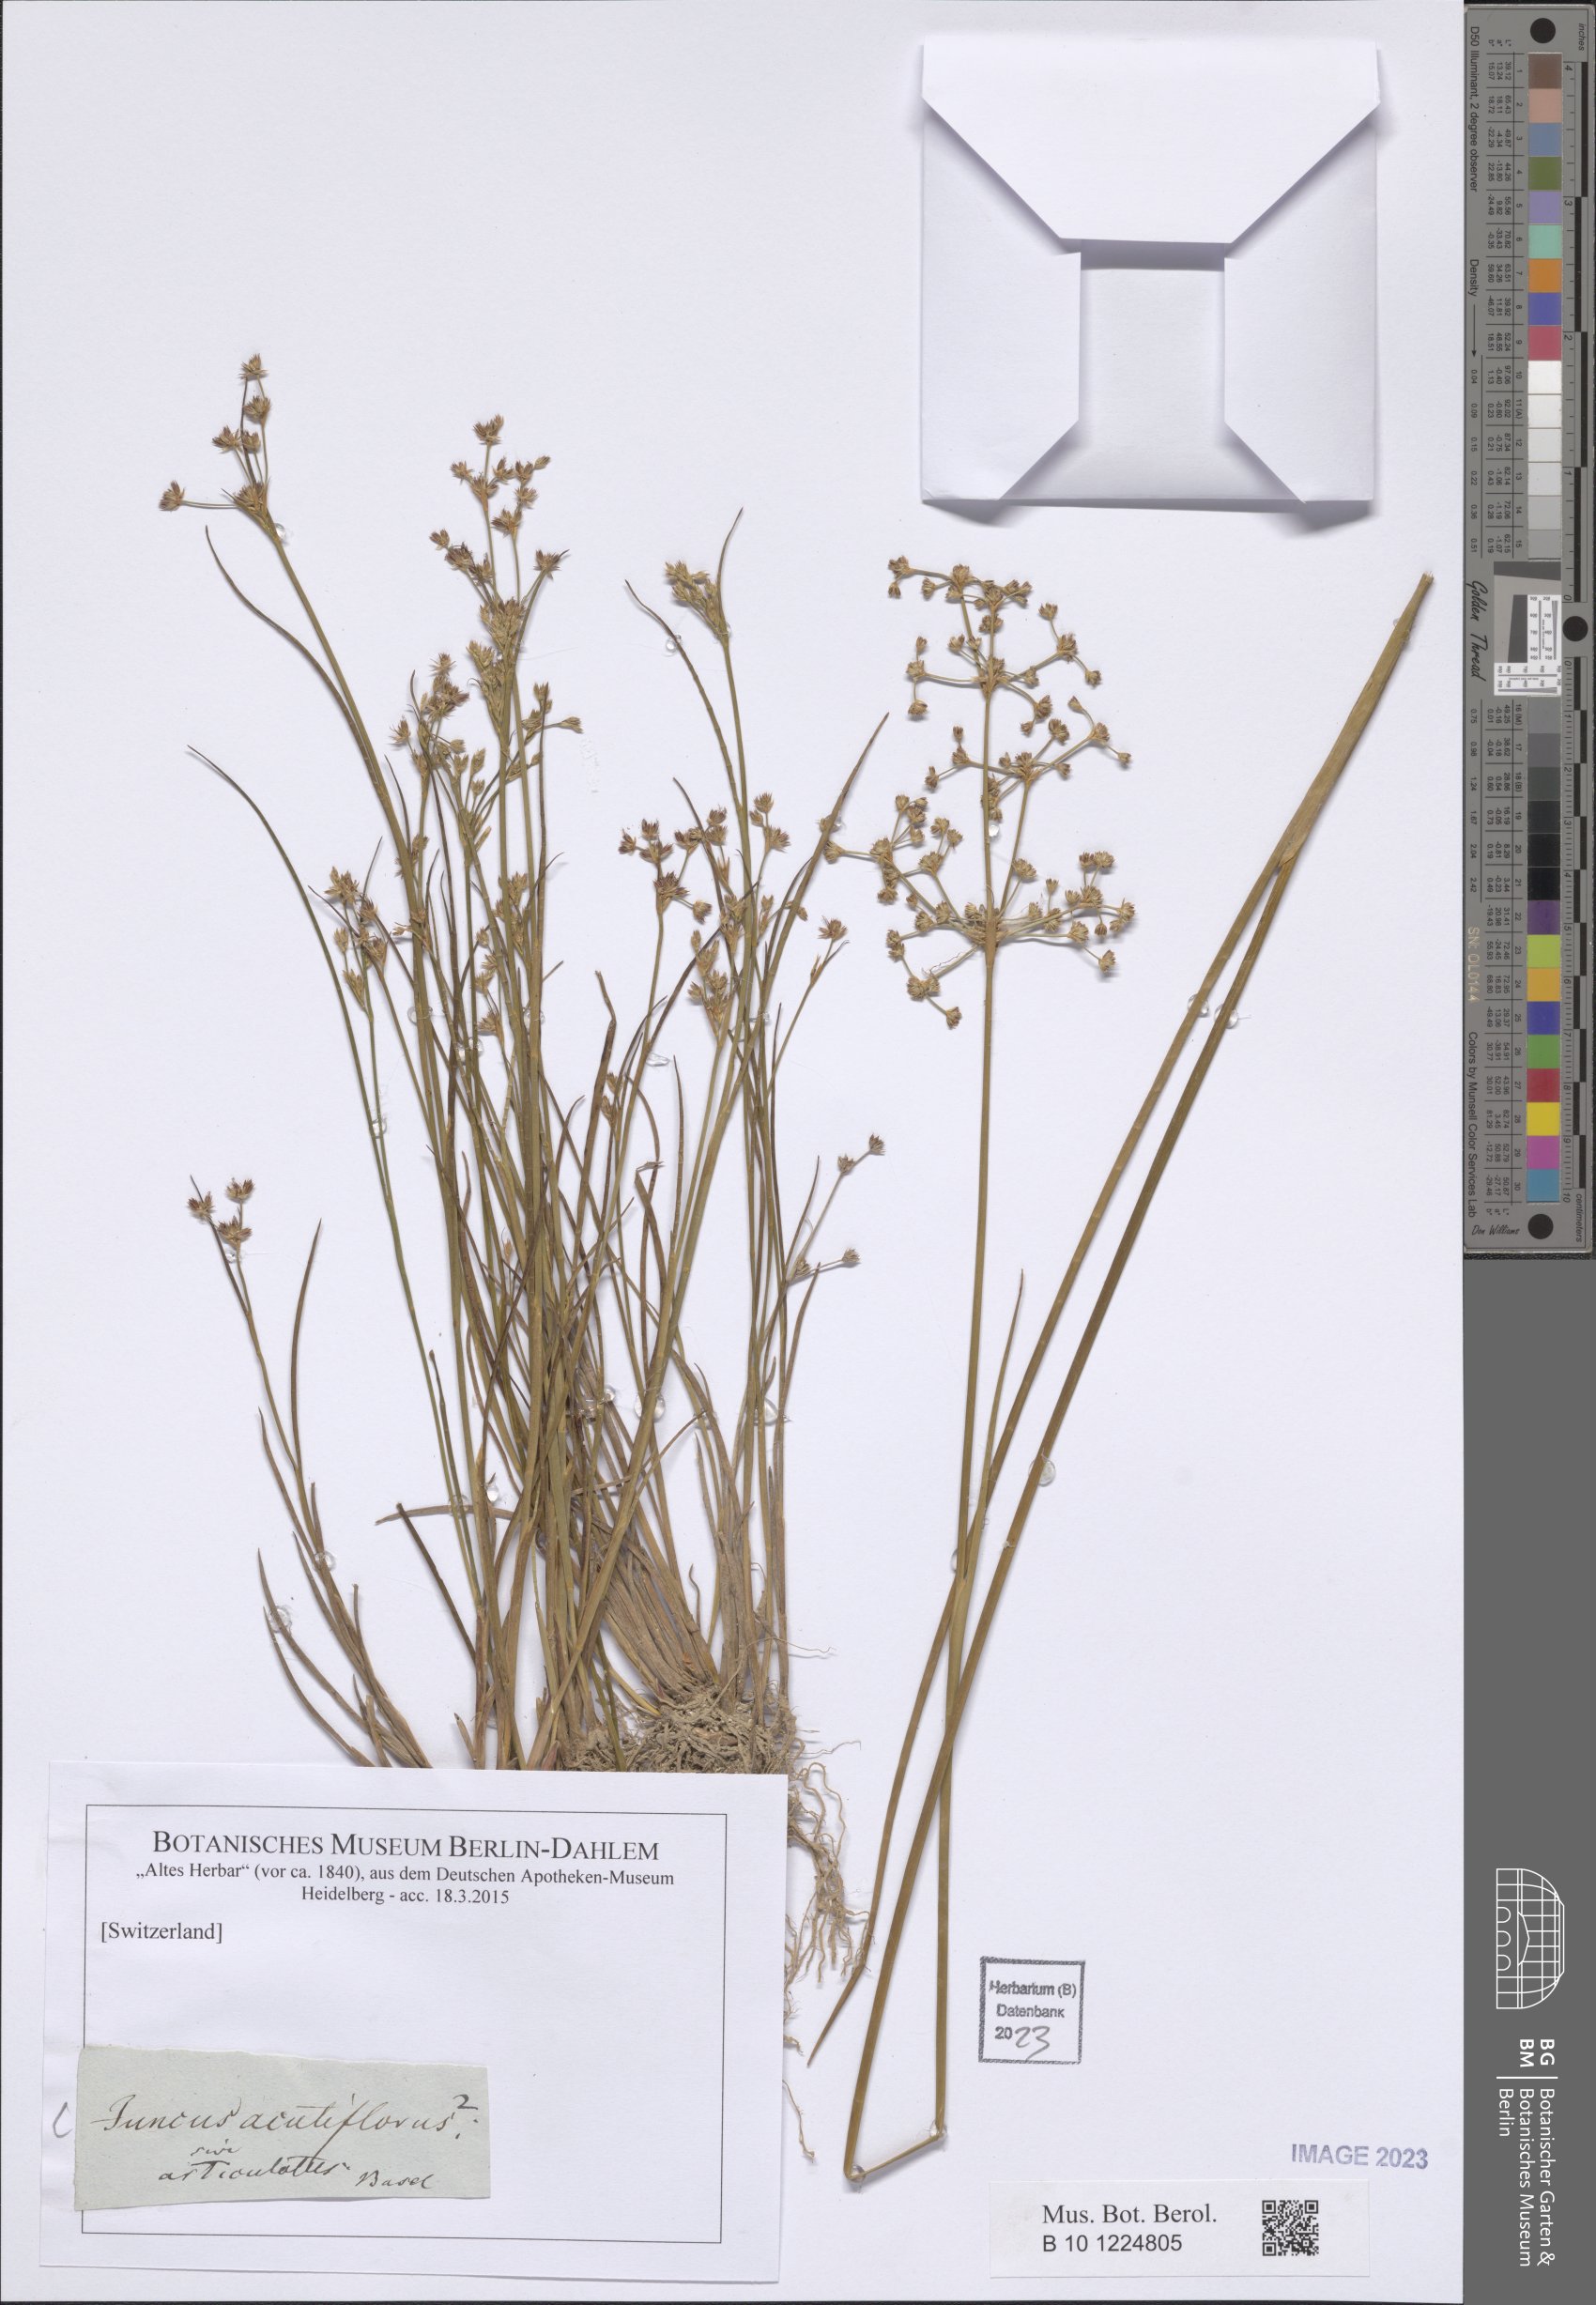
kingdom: Plantae
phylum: Tracheophyta
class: Liliopsida
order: Poales
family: Juncaceae
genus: Juncus
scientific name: Juncus acutiflorus
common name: Sharp-flowered rush
